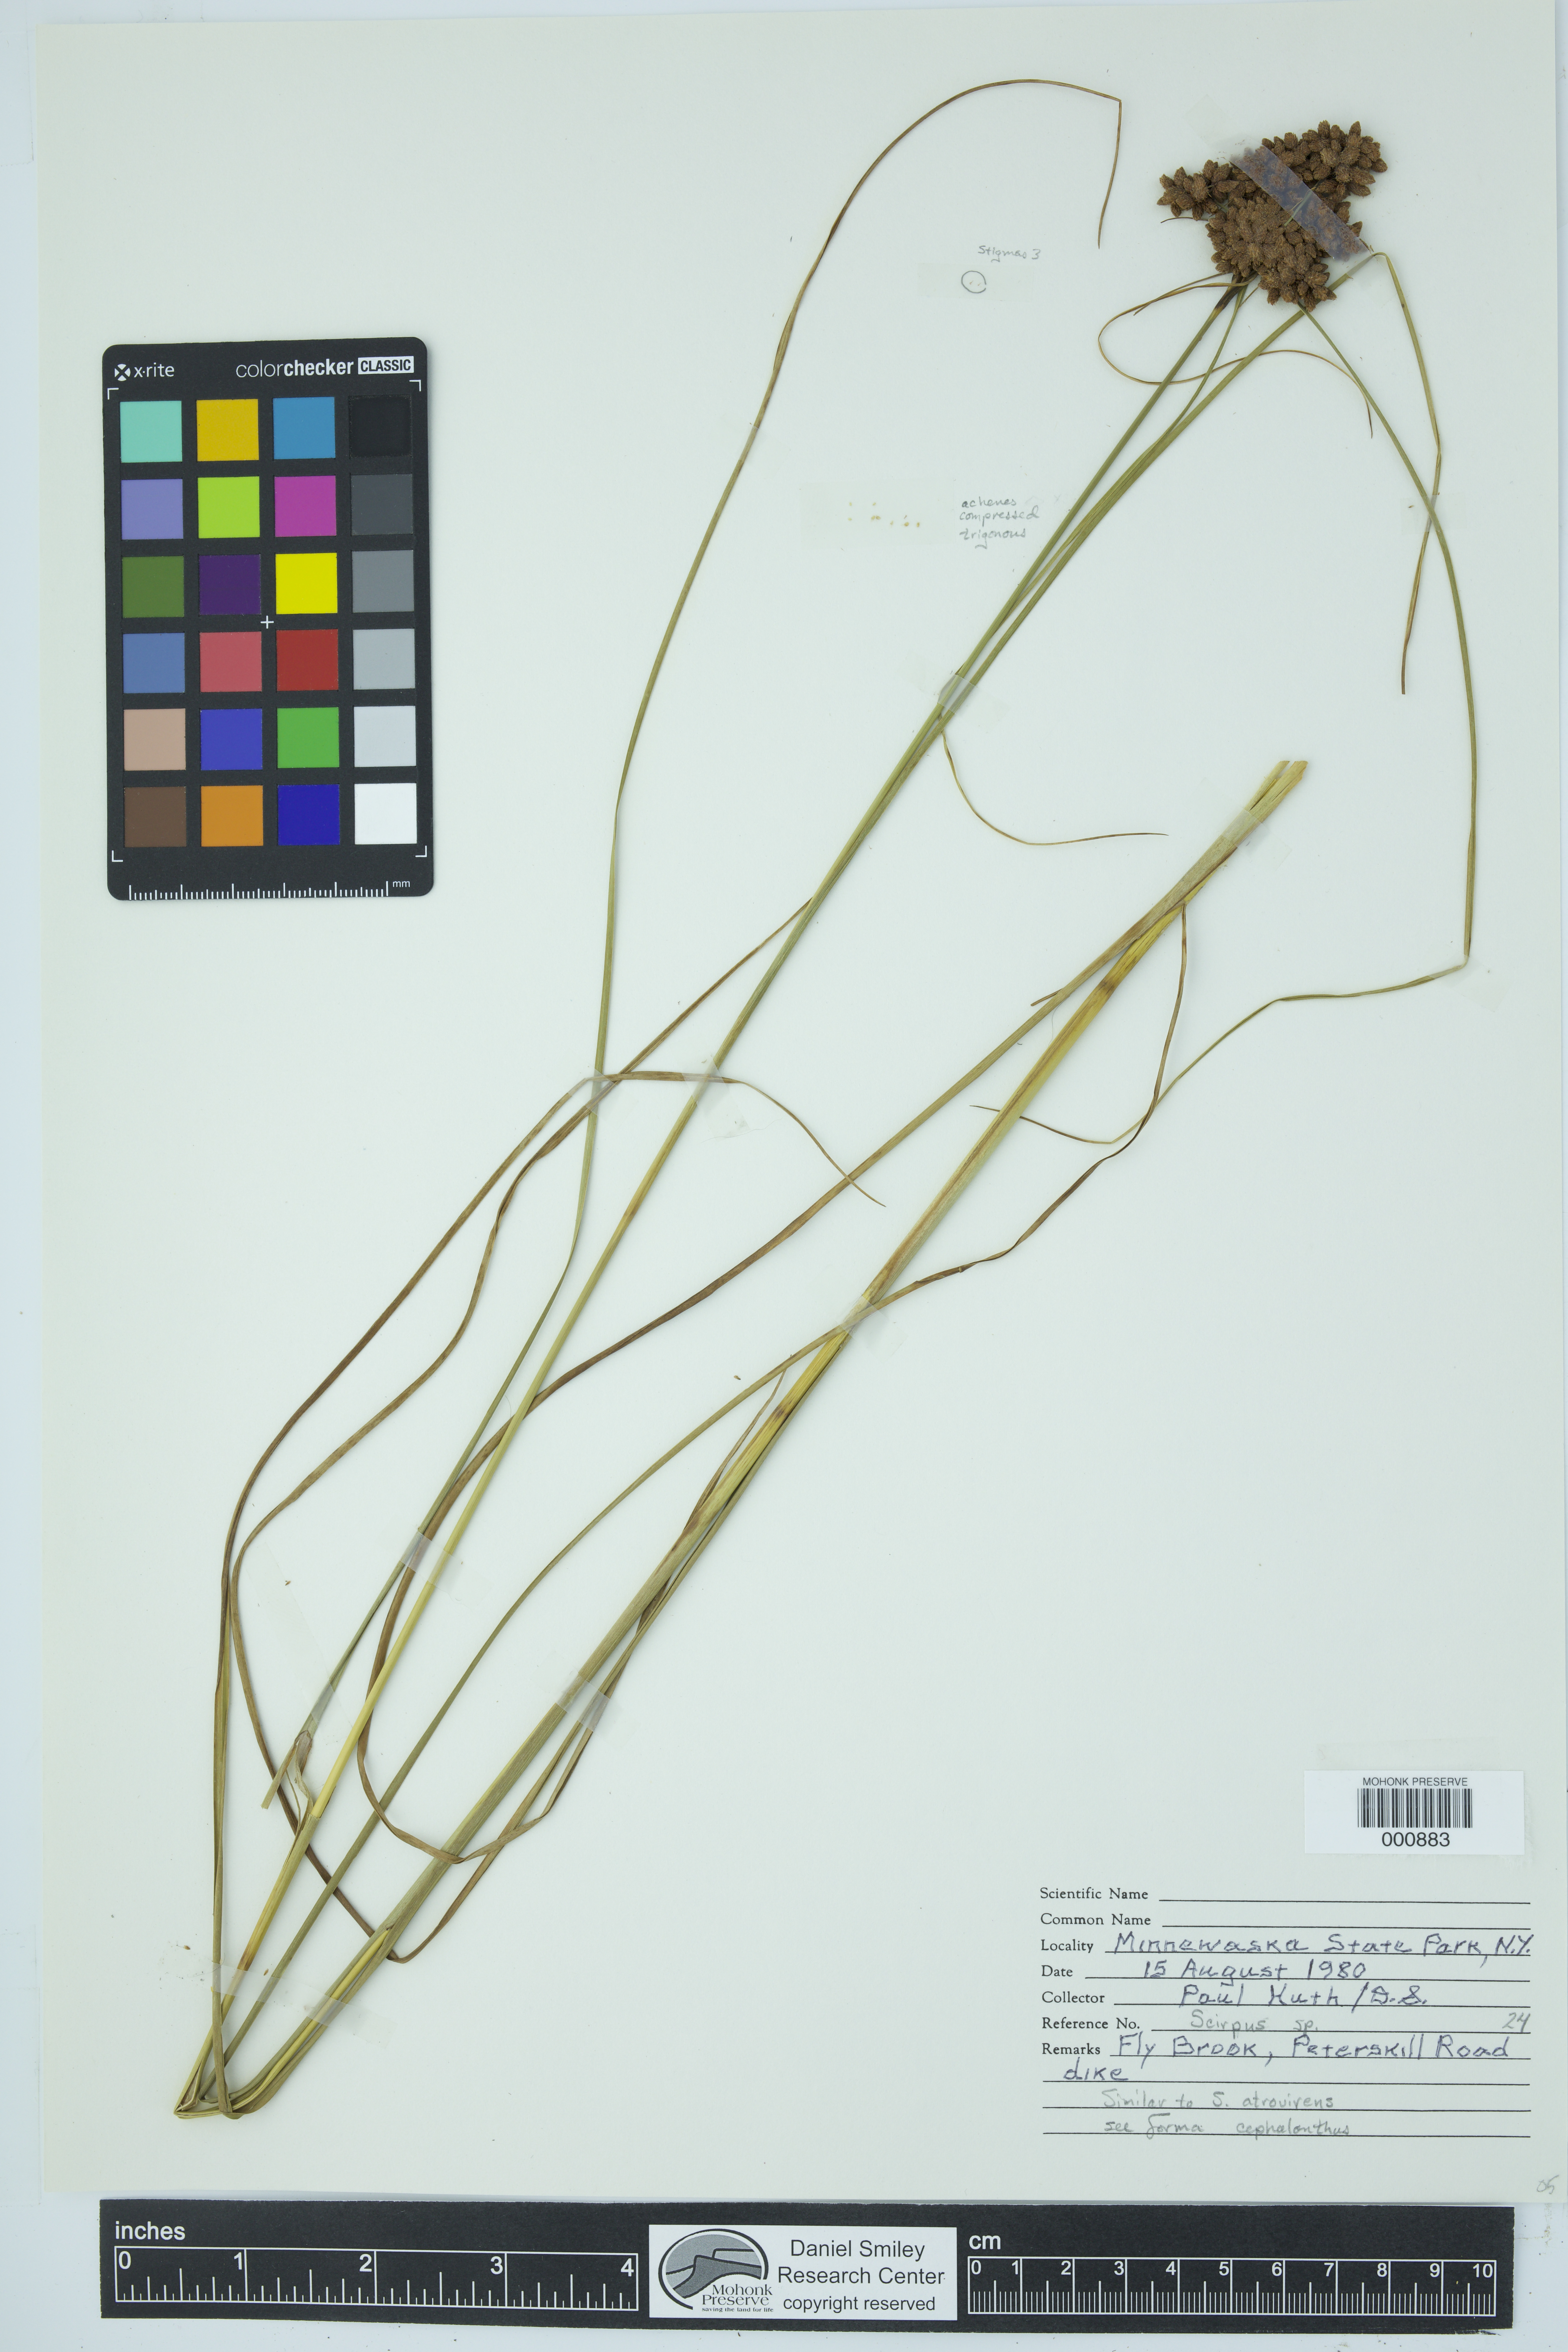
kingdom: Plantae
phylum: Tracheophyta
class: Liliopsida
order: Poales
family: Cyperaceae
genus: Scirpus
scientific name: Scirpus
